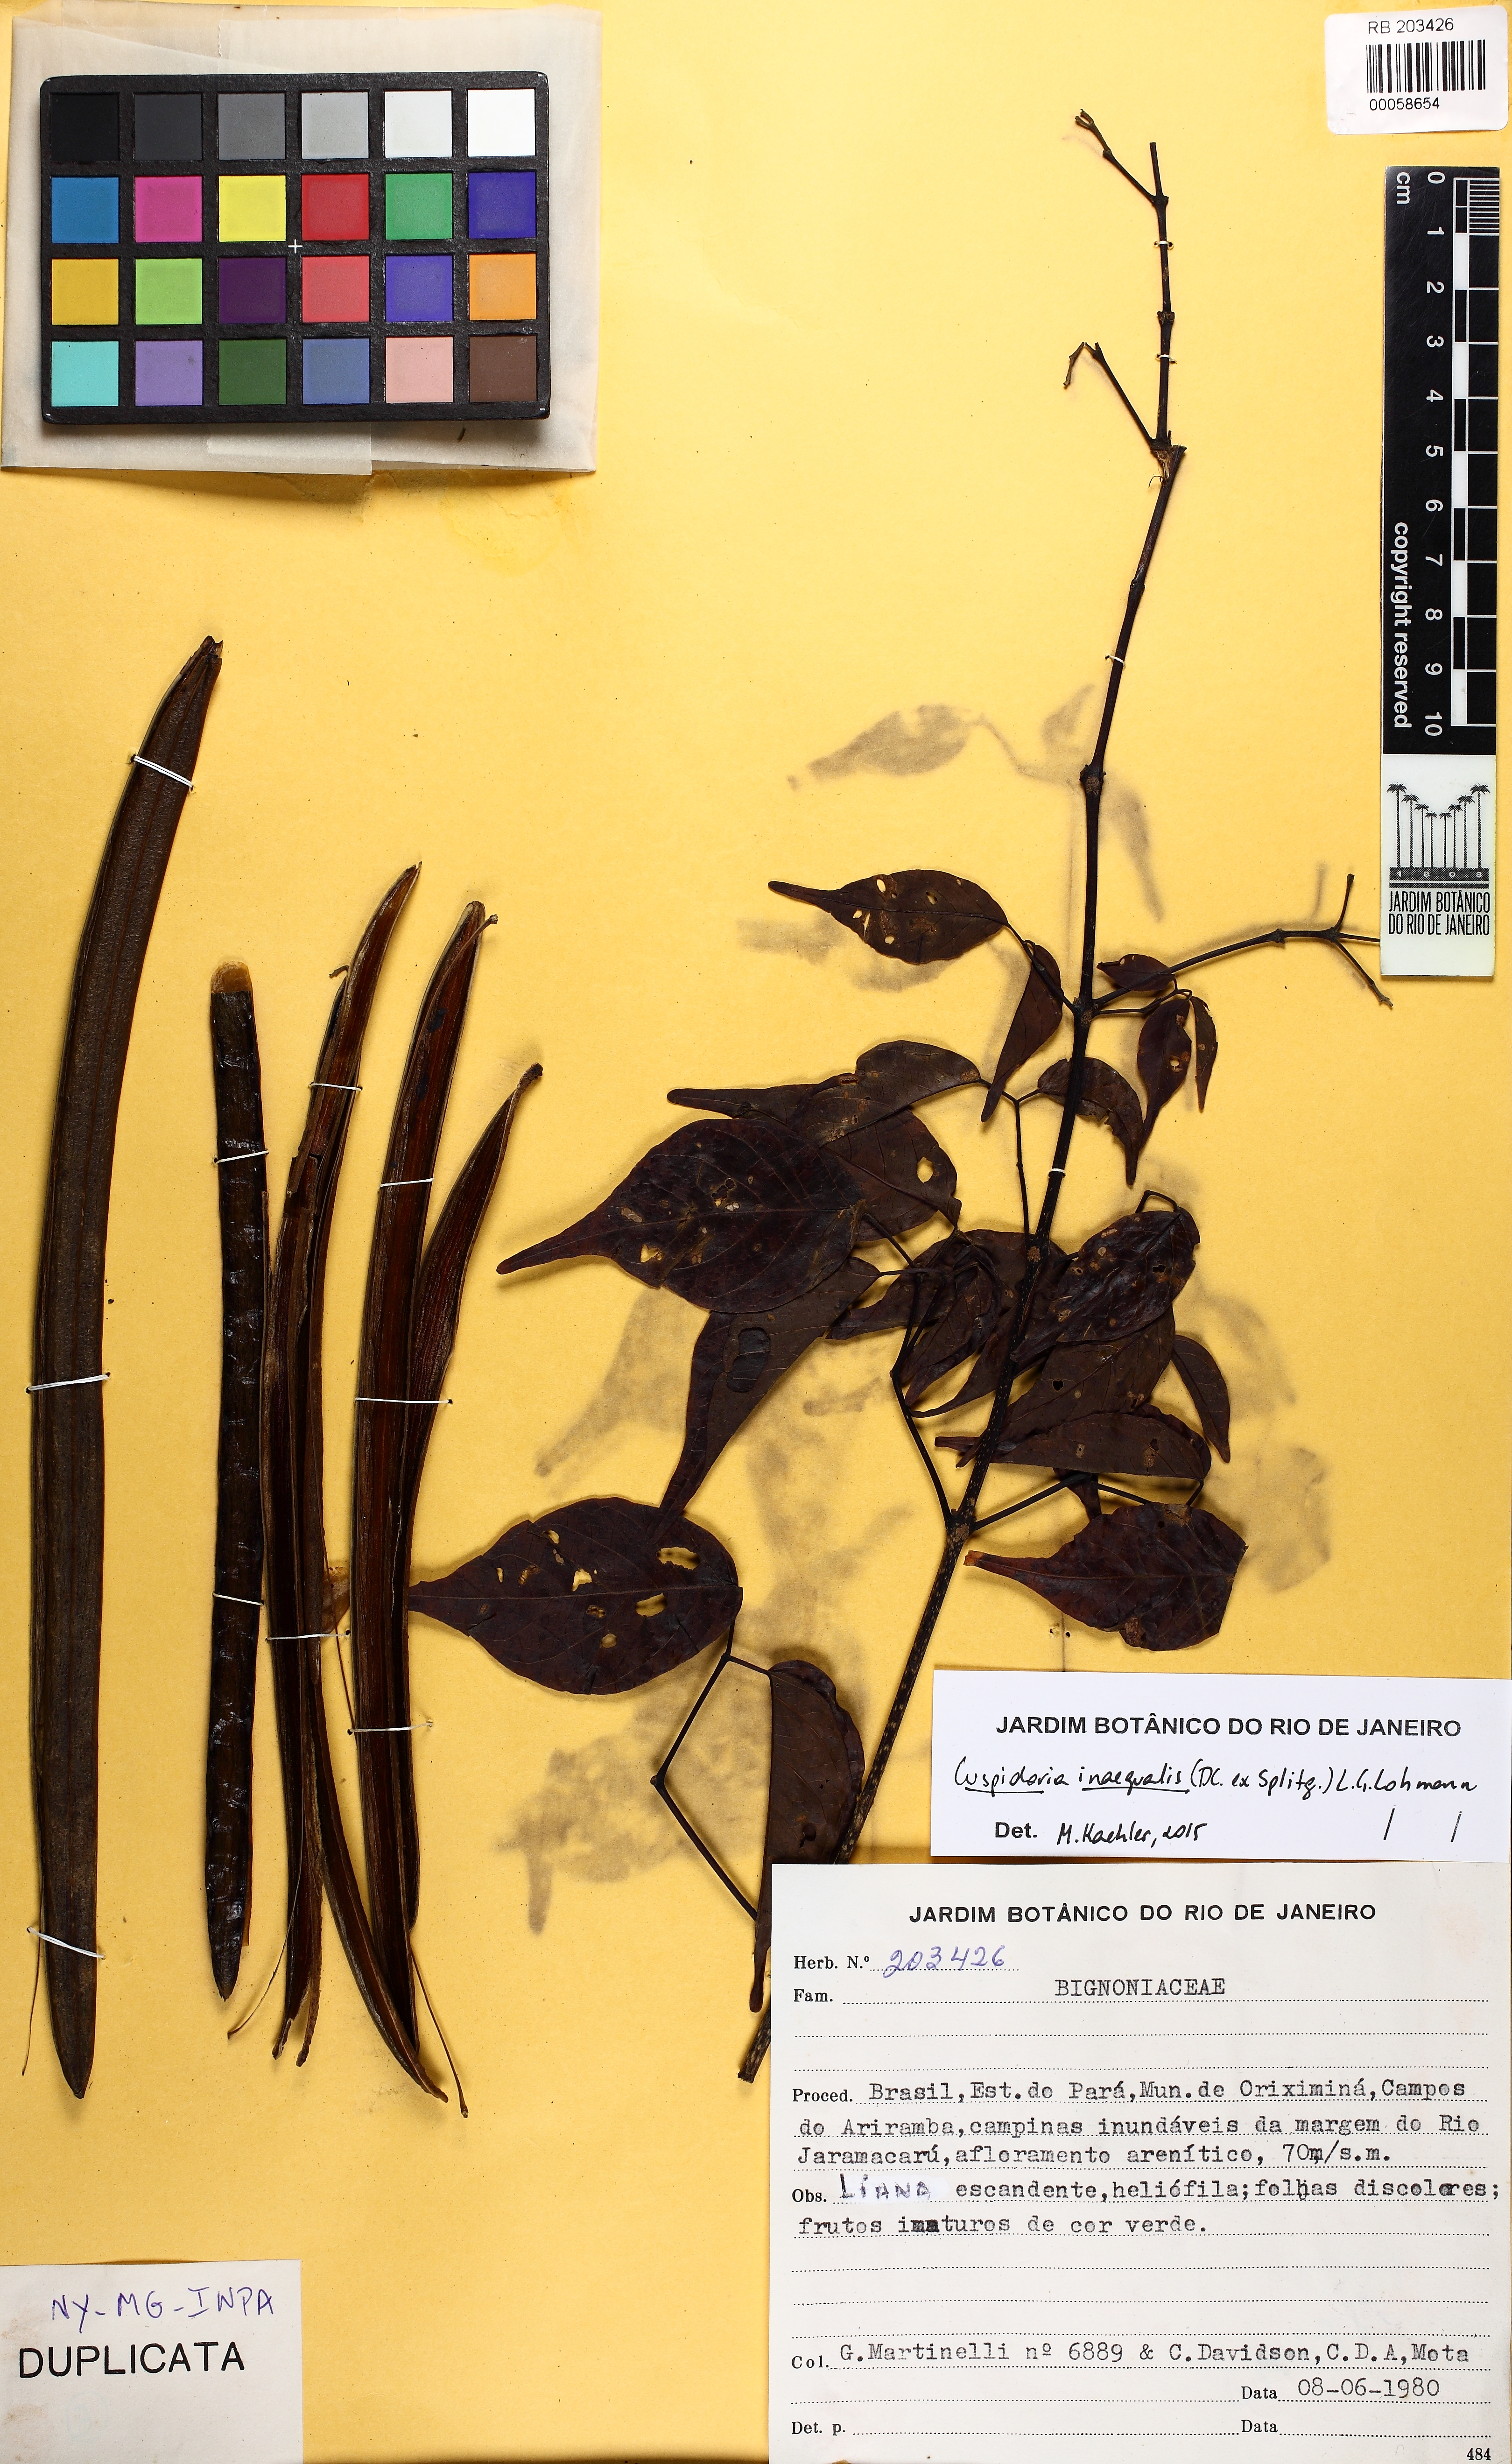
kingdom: Plantae
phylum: Tracheophyta
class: Magnoliopsida
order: Lamiales
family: Bignoniaceae
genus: Cuspidaria
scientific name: Cuspidaria inaequalis
